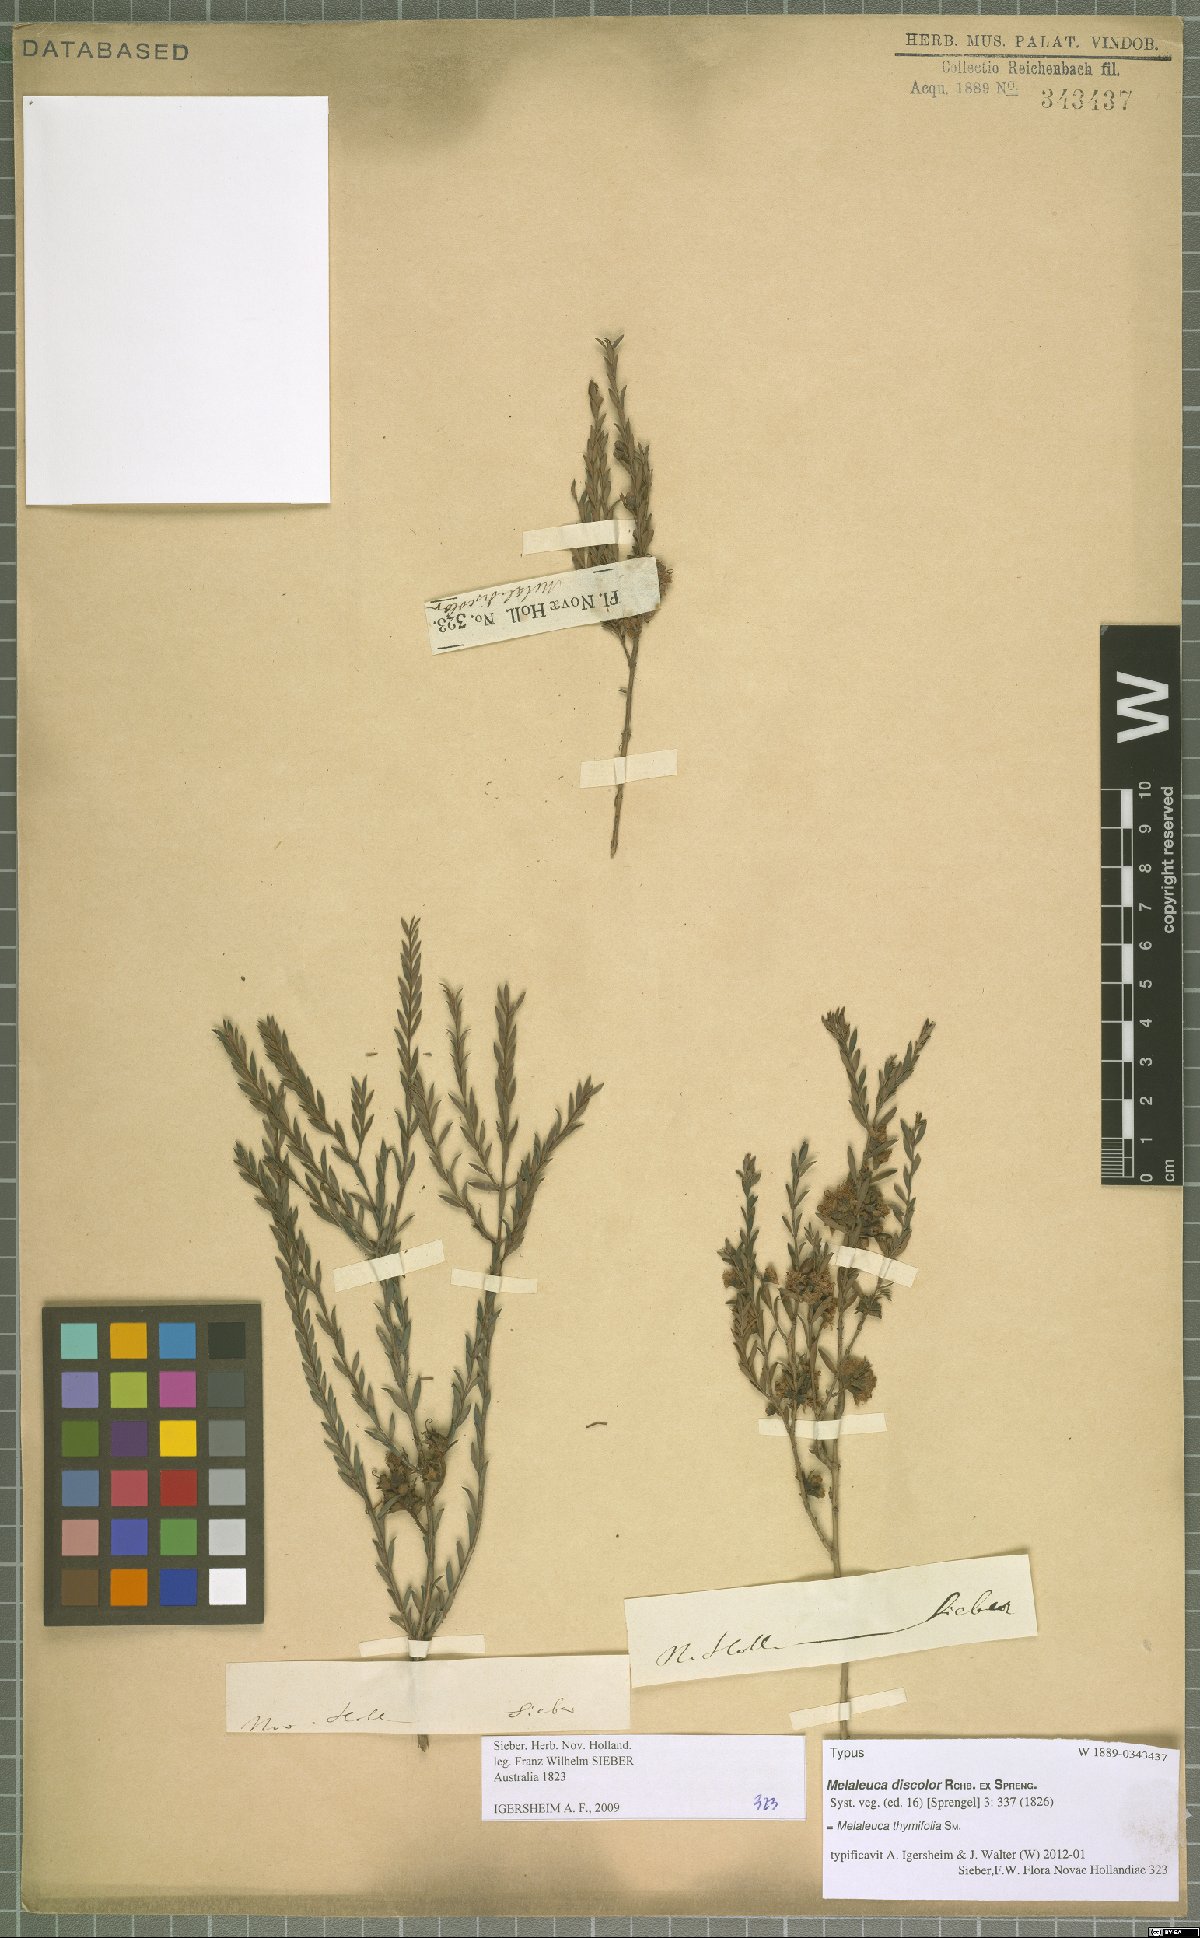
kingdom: Plantae
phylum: Tracheophyta
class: Magnoliopsida
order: Myrtales
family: Myrtaceae
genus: Melaleuca
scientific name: Melaleuca thymifolia
